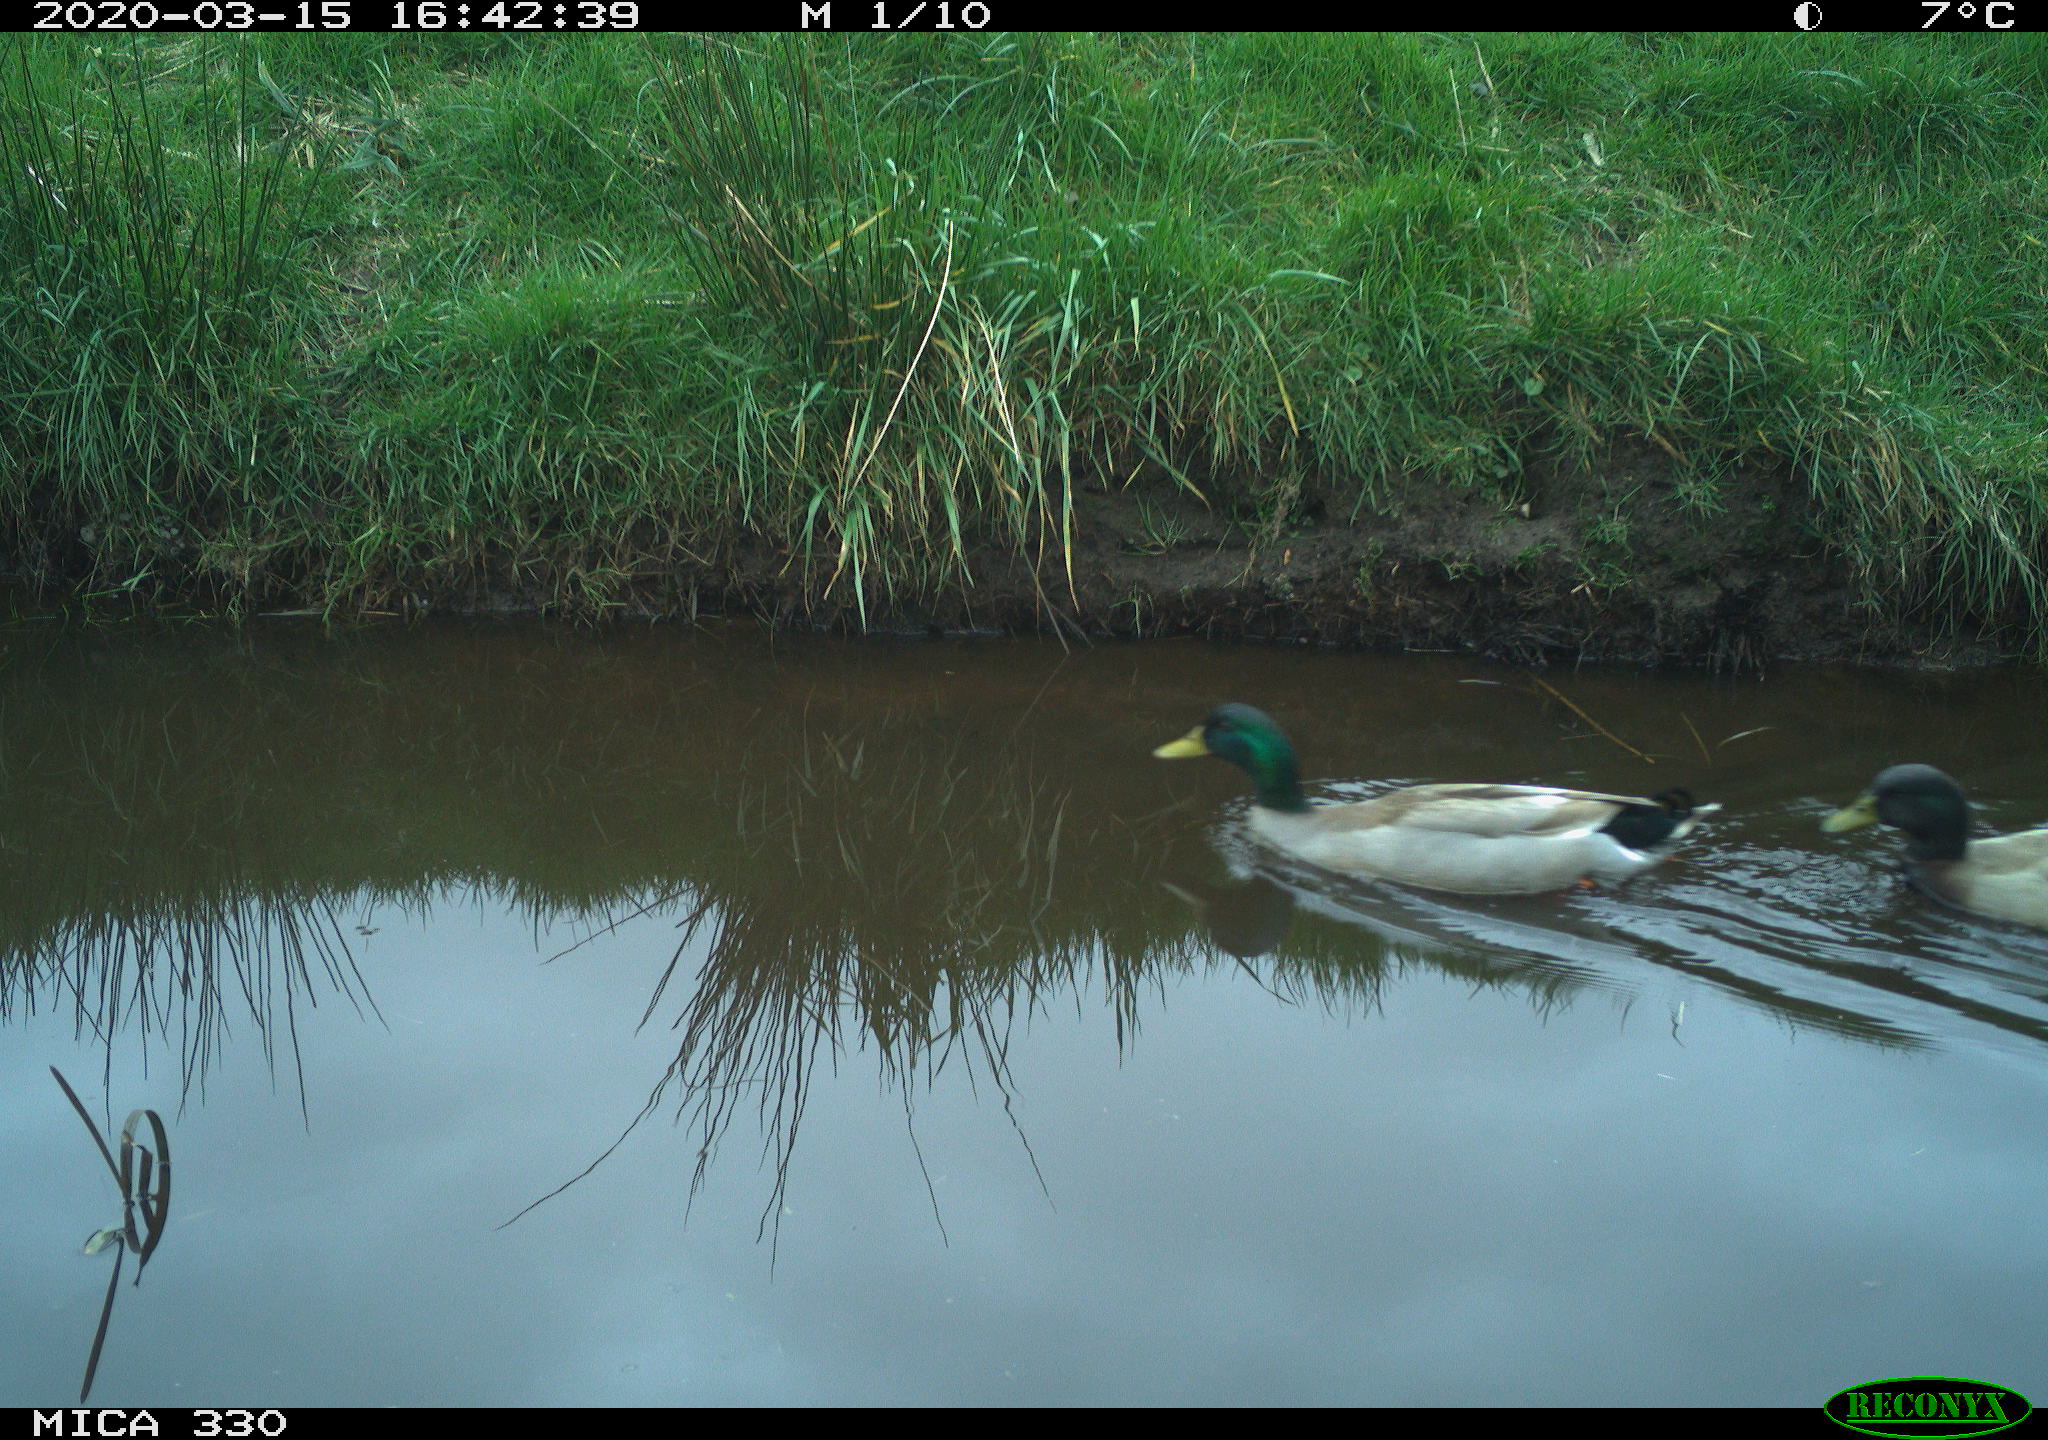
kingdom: Animalia
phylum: Chordata
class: Aves
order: Anseriformes
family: Anatidae
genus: Anas
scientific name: Anas platyrhynchos
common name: Mallard
